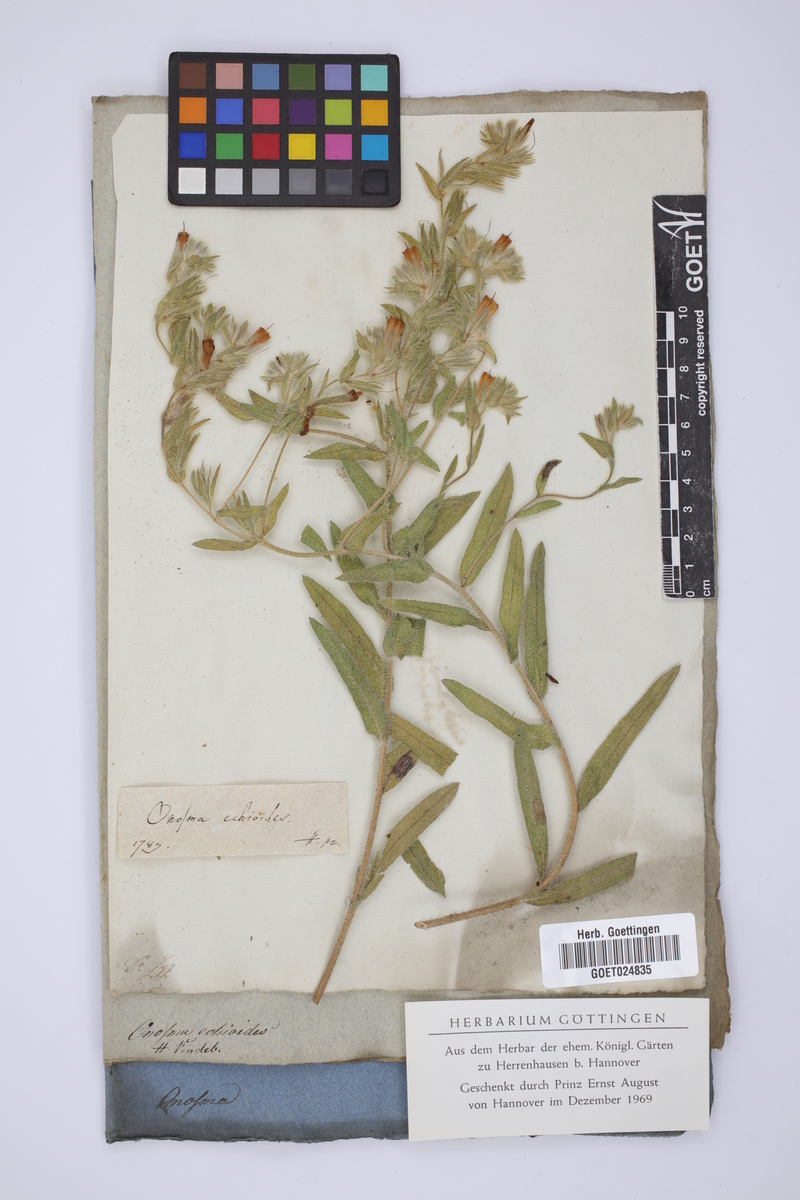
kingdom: Plantae
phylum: Tracheophyta
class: Magnoliopsida
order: Boraginales
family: Boraginaceae
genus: Onosma
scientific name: Onosma echioides
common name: Goldendrop
